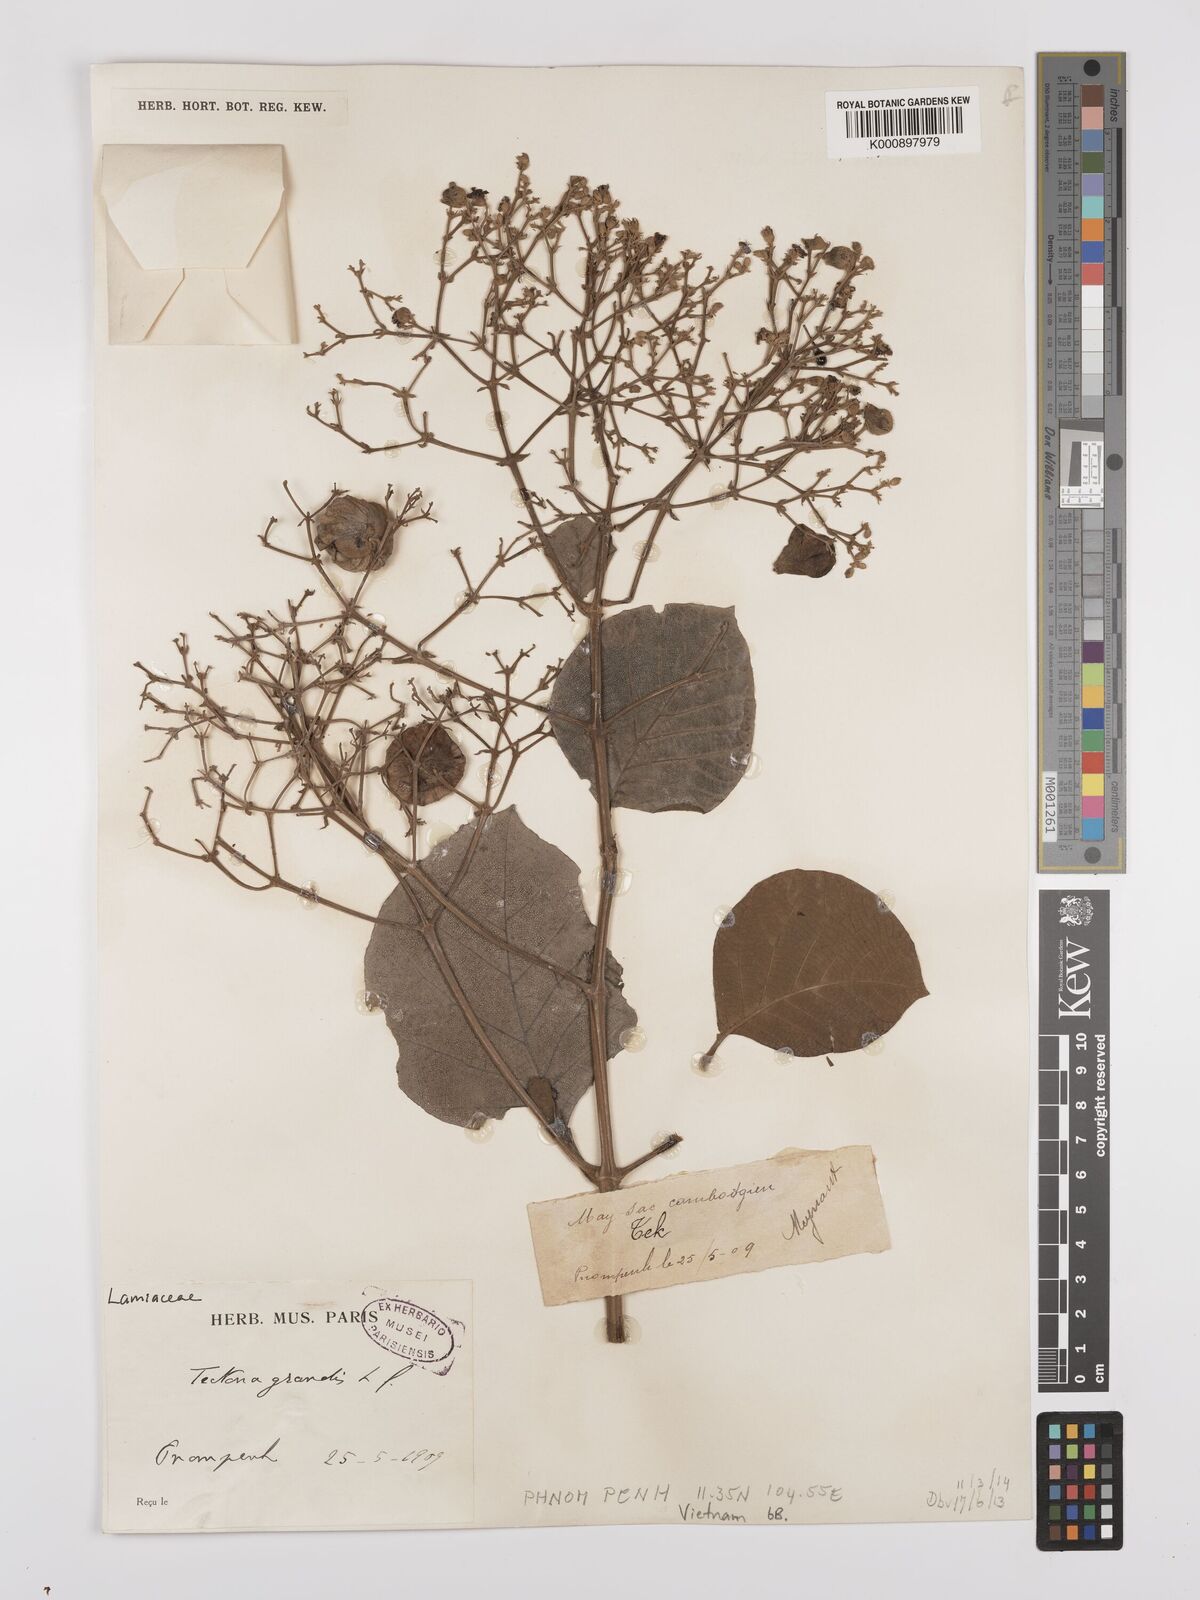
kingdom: Plantae
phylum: Tracheophyta
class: Magnoliopsida
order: Lamiales
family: Lamiaceae
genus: Tectona
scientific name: Tectona grandis
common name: Teak
